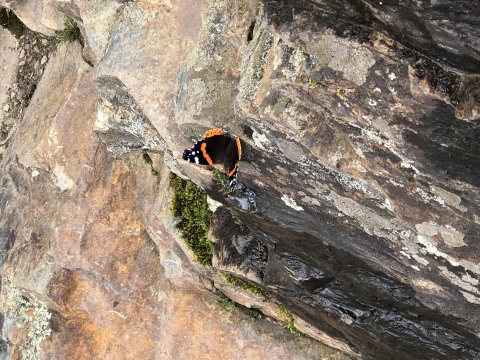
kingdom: Animalia
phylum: Arthropoda
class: Insecta
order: Lepidoptera
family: Nymphalidae
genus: Vanessa
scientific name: Vanessa atalanta
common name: Red Admiral
